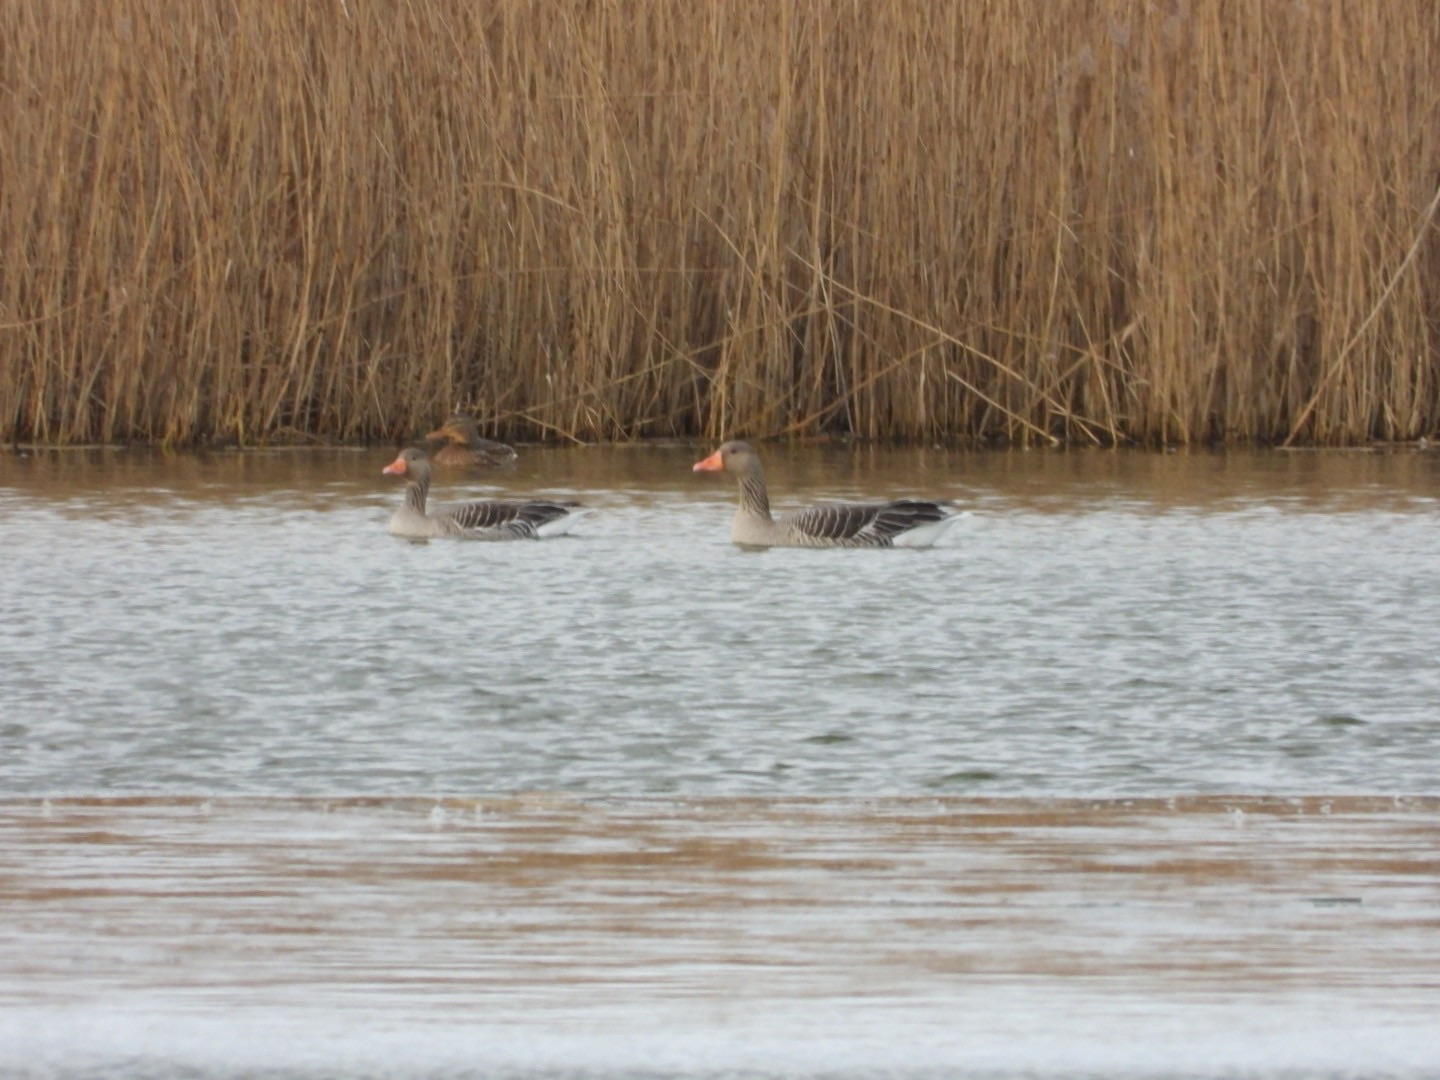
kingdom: Animalia
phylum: Chordata
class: Aves
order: Anseriformes
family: Anatidae
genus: Anser
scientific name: Anser anser
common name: Grågås
